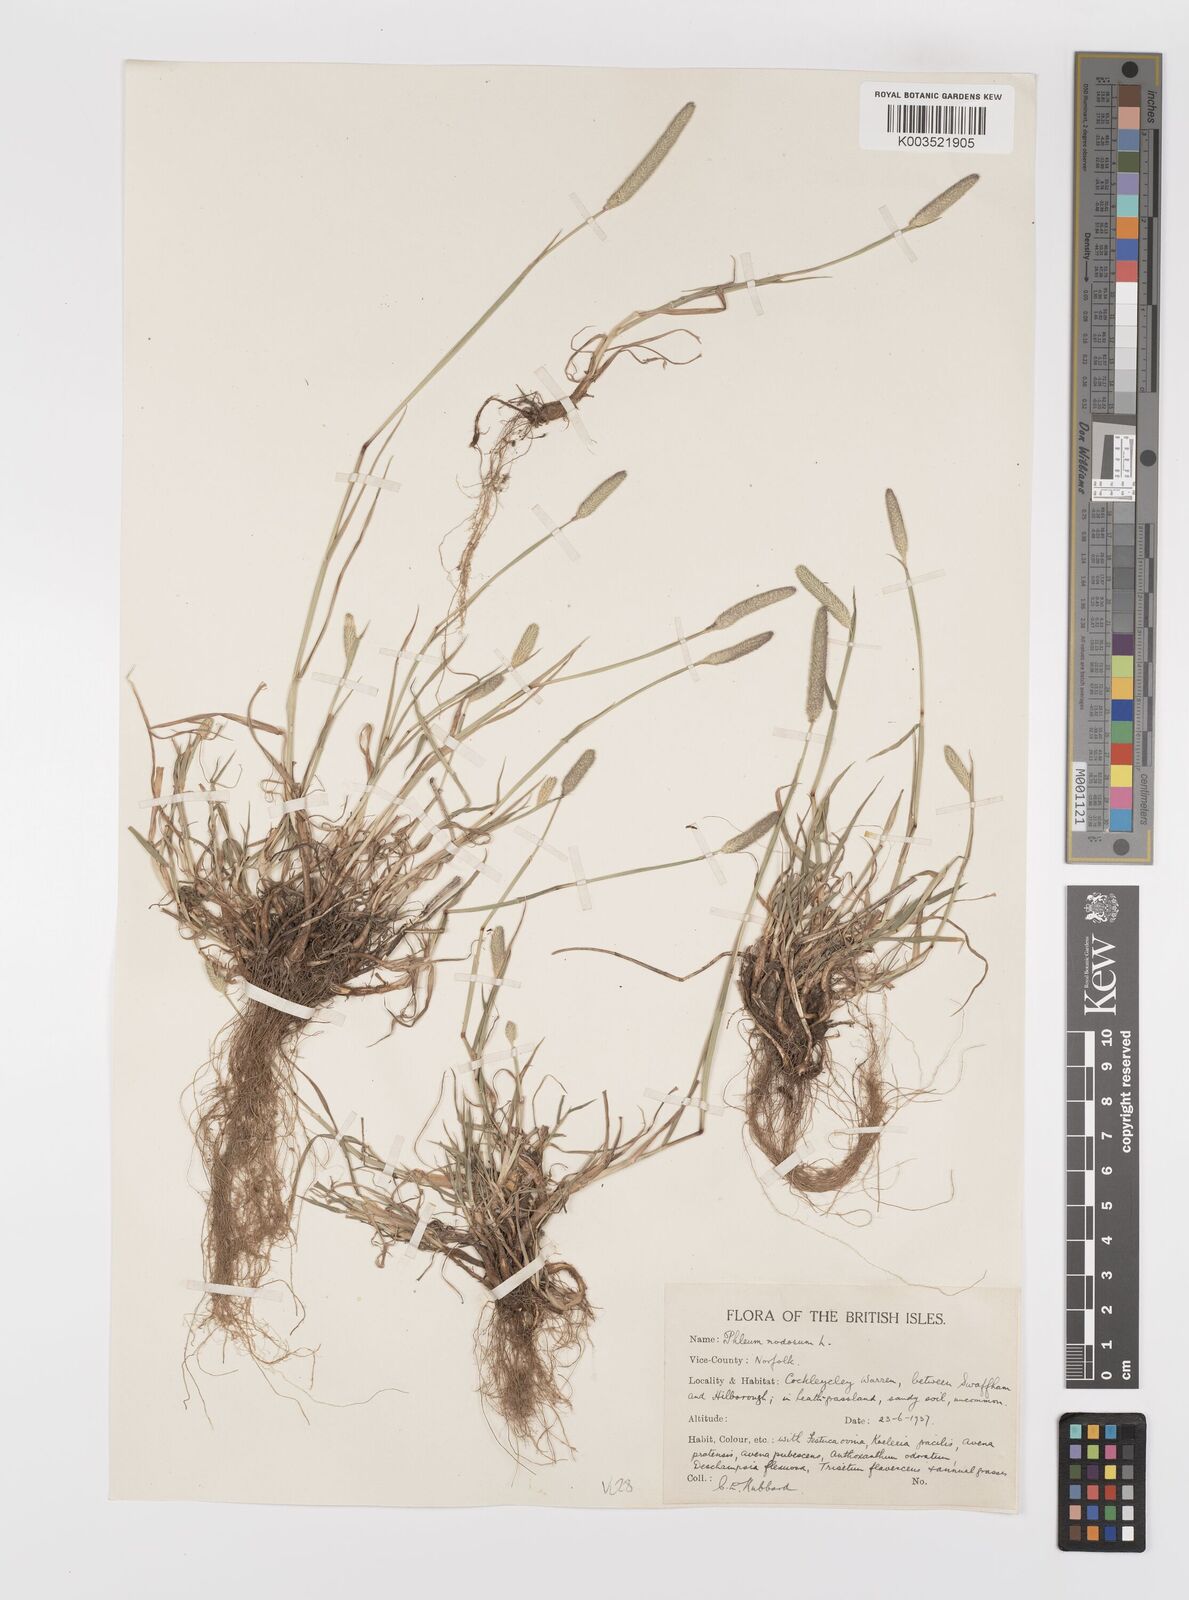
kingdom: Plantae
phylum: Tracheophyta
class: Liliopsida
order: Poales
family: Poaceae
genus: Phleum
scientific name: Phleum bertolonii
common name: Smaller cat's-tail
